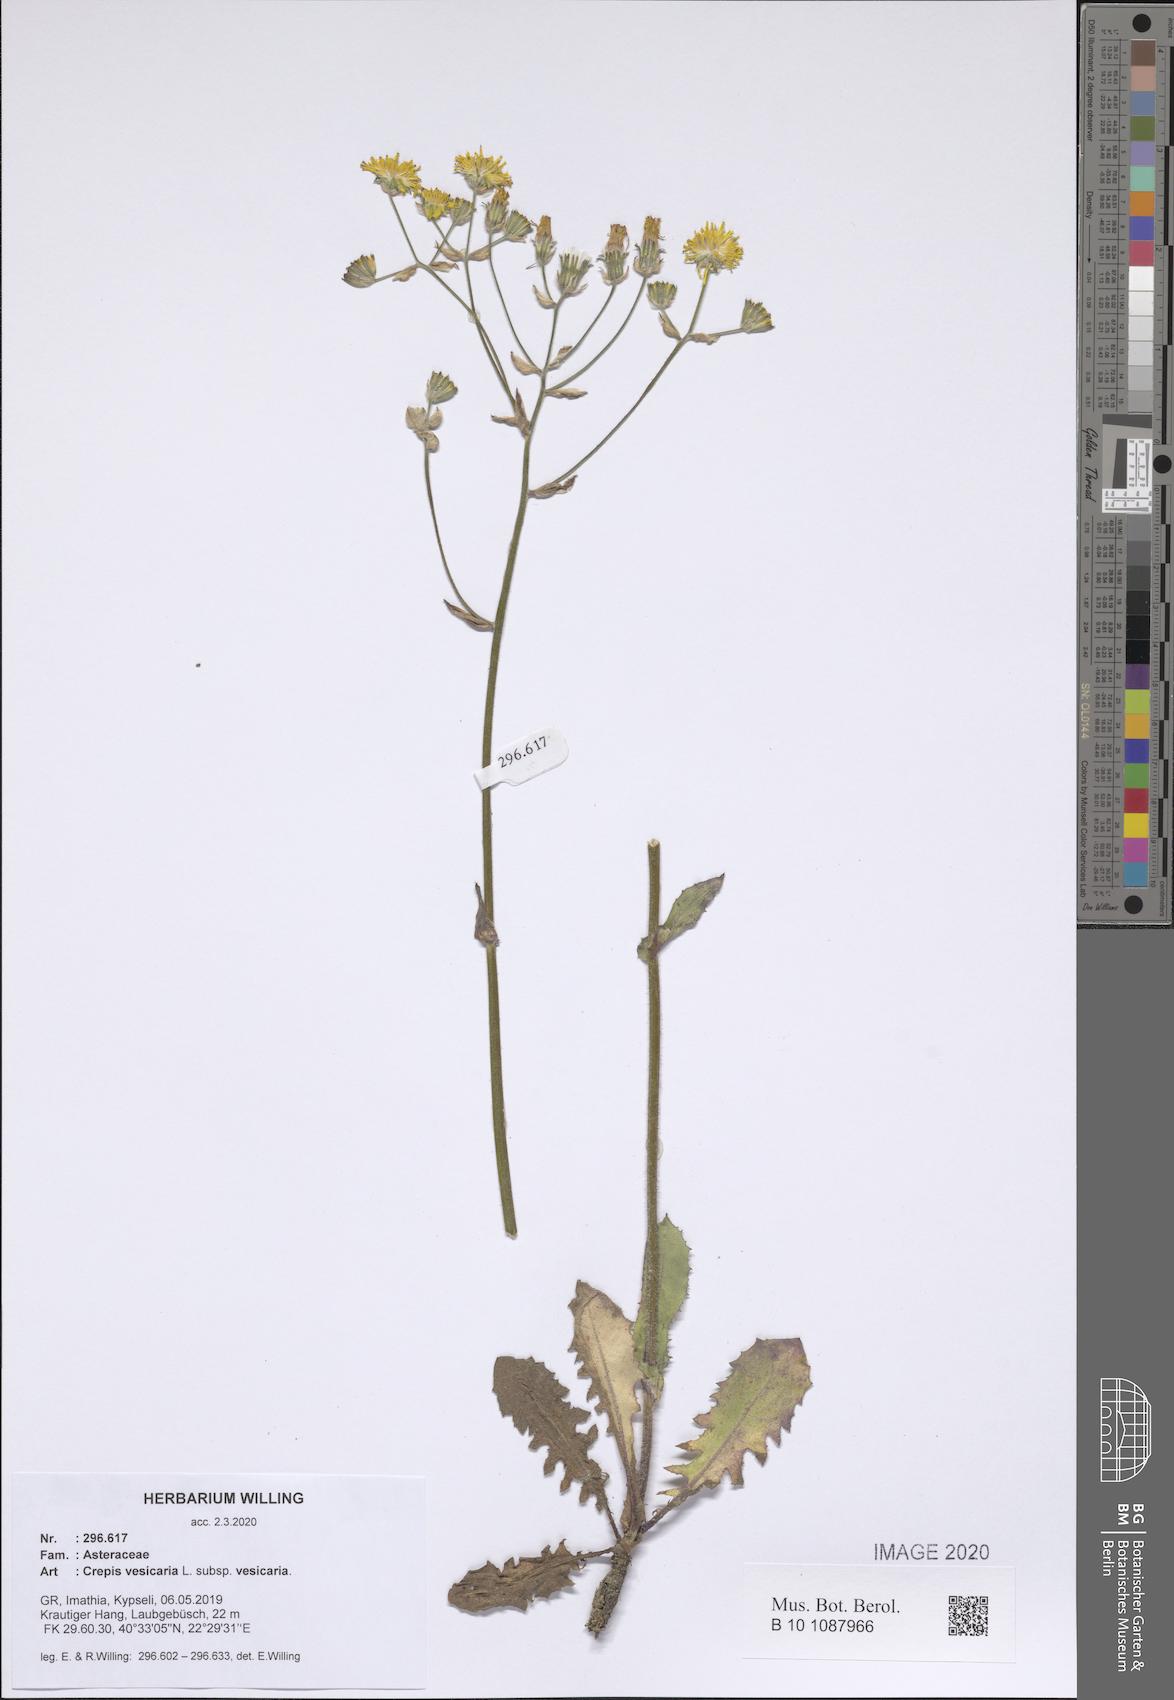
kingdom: Plantae
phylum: Tracheophyta
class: Magnoliopsida
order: Asterales
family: Asteraceae
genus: Crepis
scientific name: Crepis vesicaria
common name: Beaked hawksbeard
